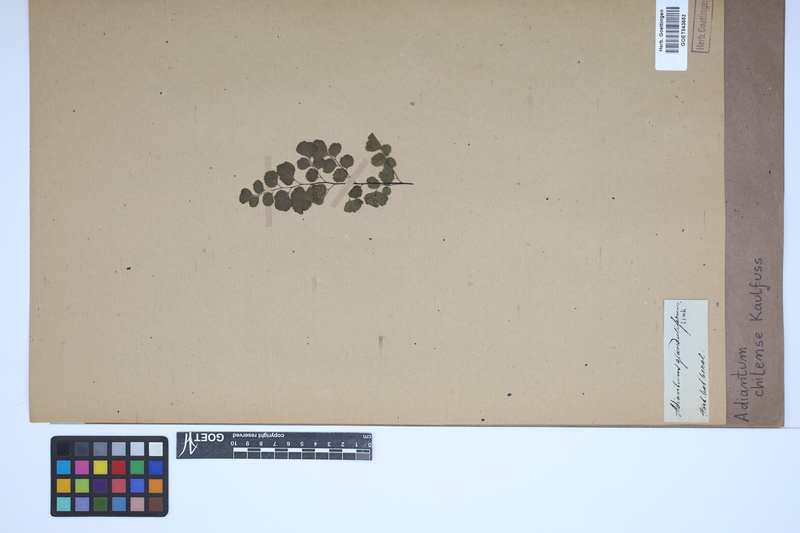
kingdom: Plantae
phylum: Tracheophyta
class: Polypodiopsida
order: Polypodiales
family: Pteridaceae
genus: Adiantum
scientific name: Adiantum chilense
